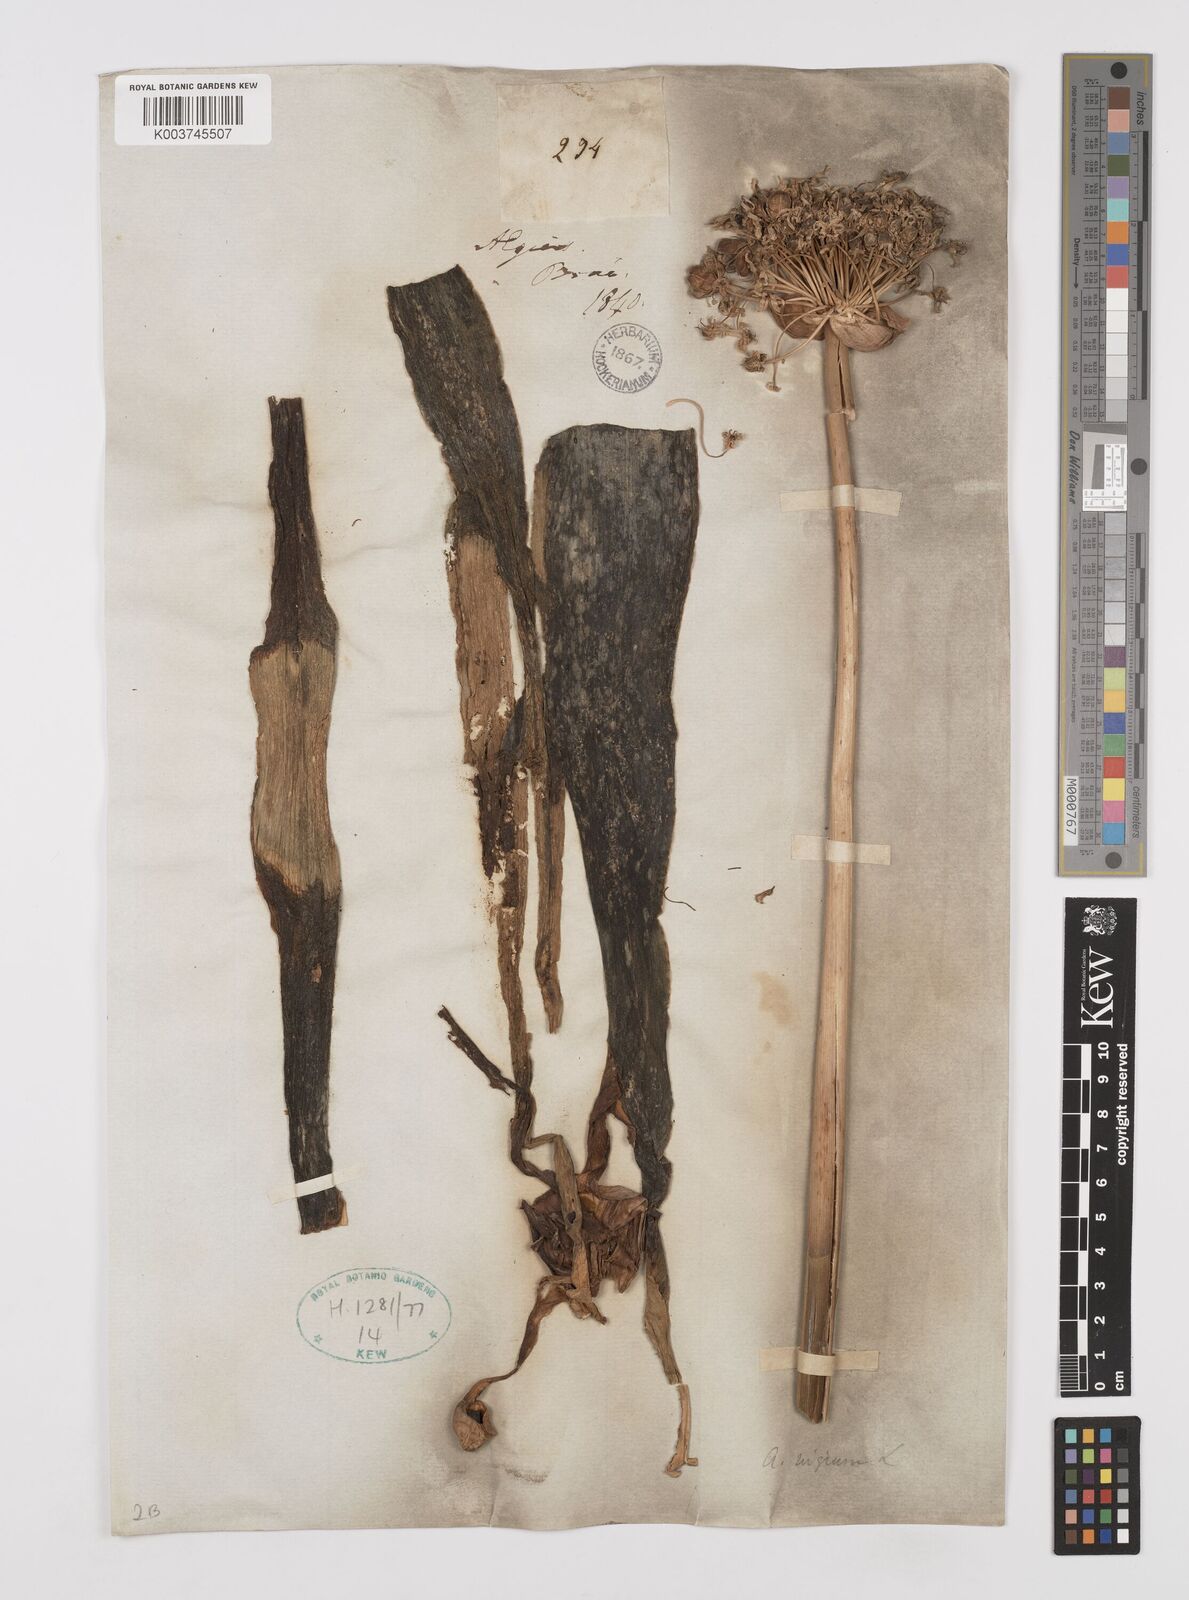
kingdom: Plantae
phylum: Tracheophyta
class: Liliopsida
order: Asparagales
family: Amaryllidaceae
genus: Allium
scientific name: Allium nigrum
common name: Black garlic
